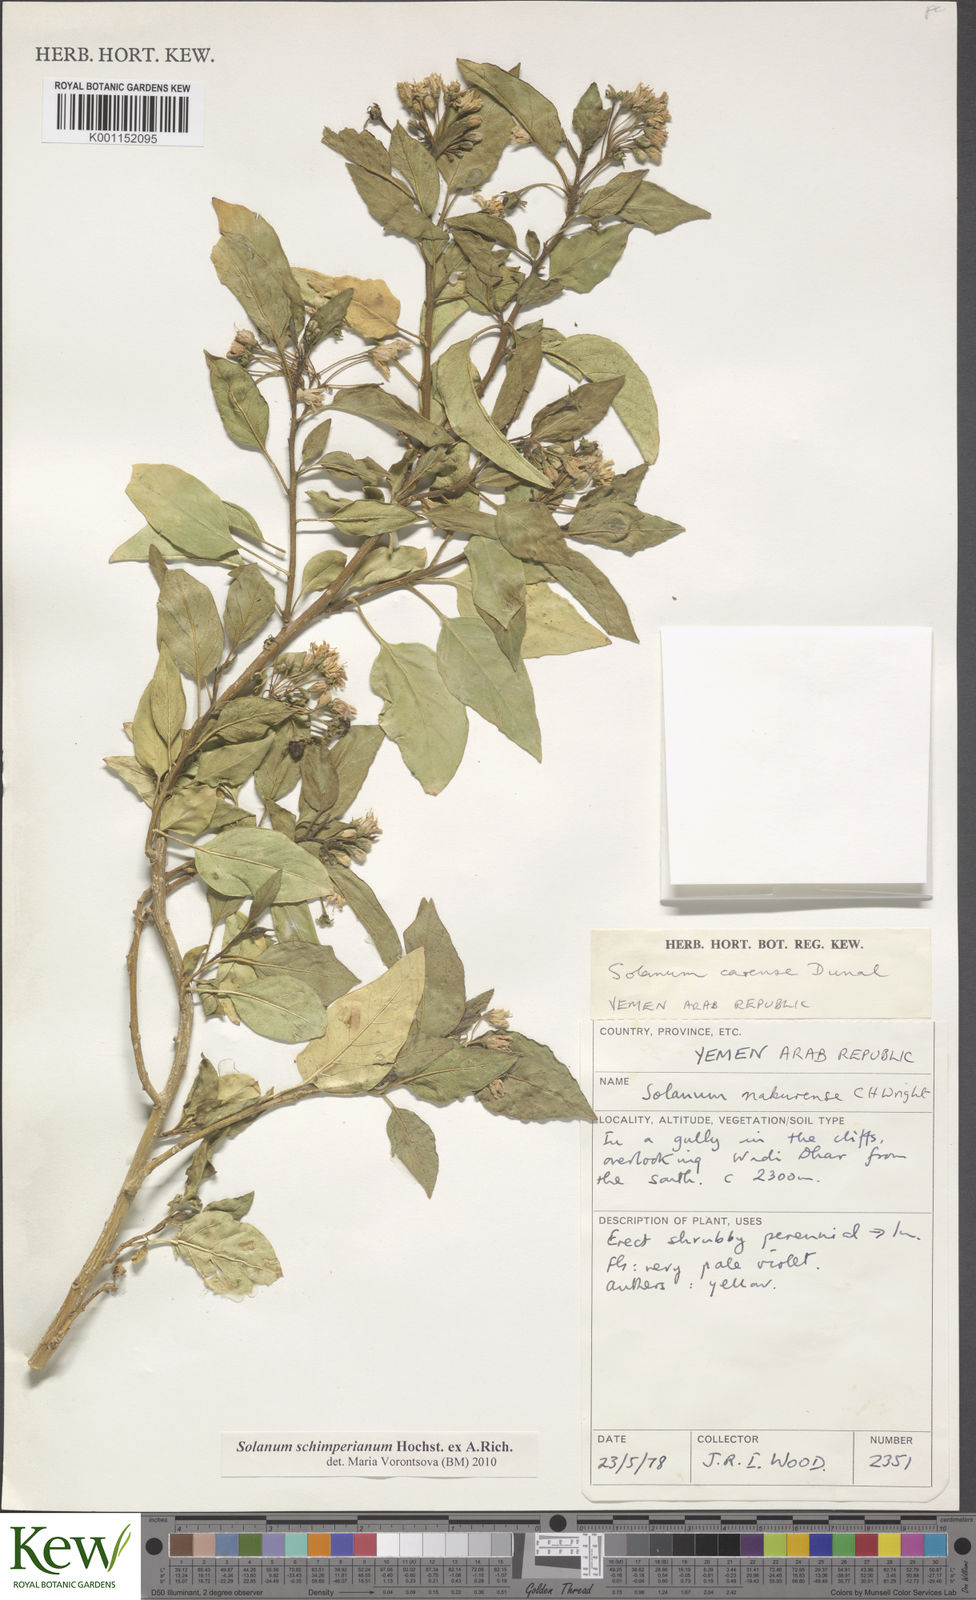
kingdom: Plantae
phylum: Tracheophyta
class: Magnoliopsida
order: Solanales
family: Solanaceae
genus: Solanum
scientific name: Solanum schimperianum
